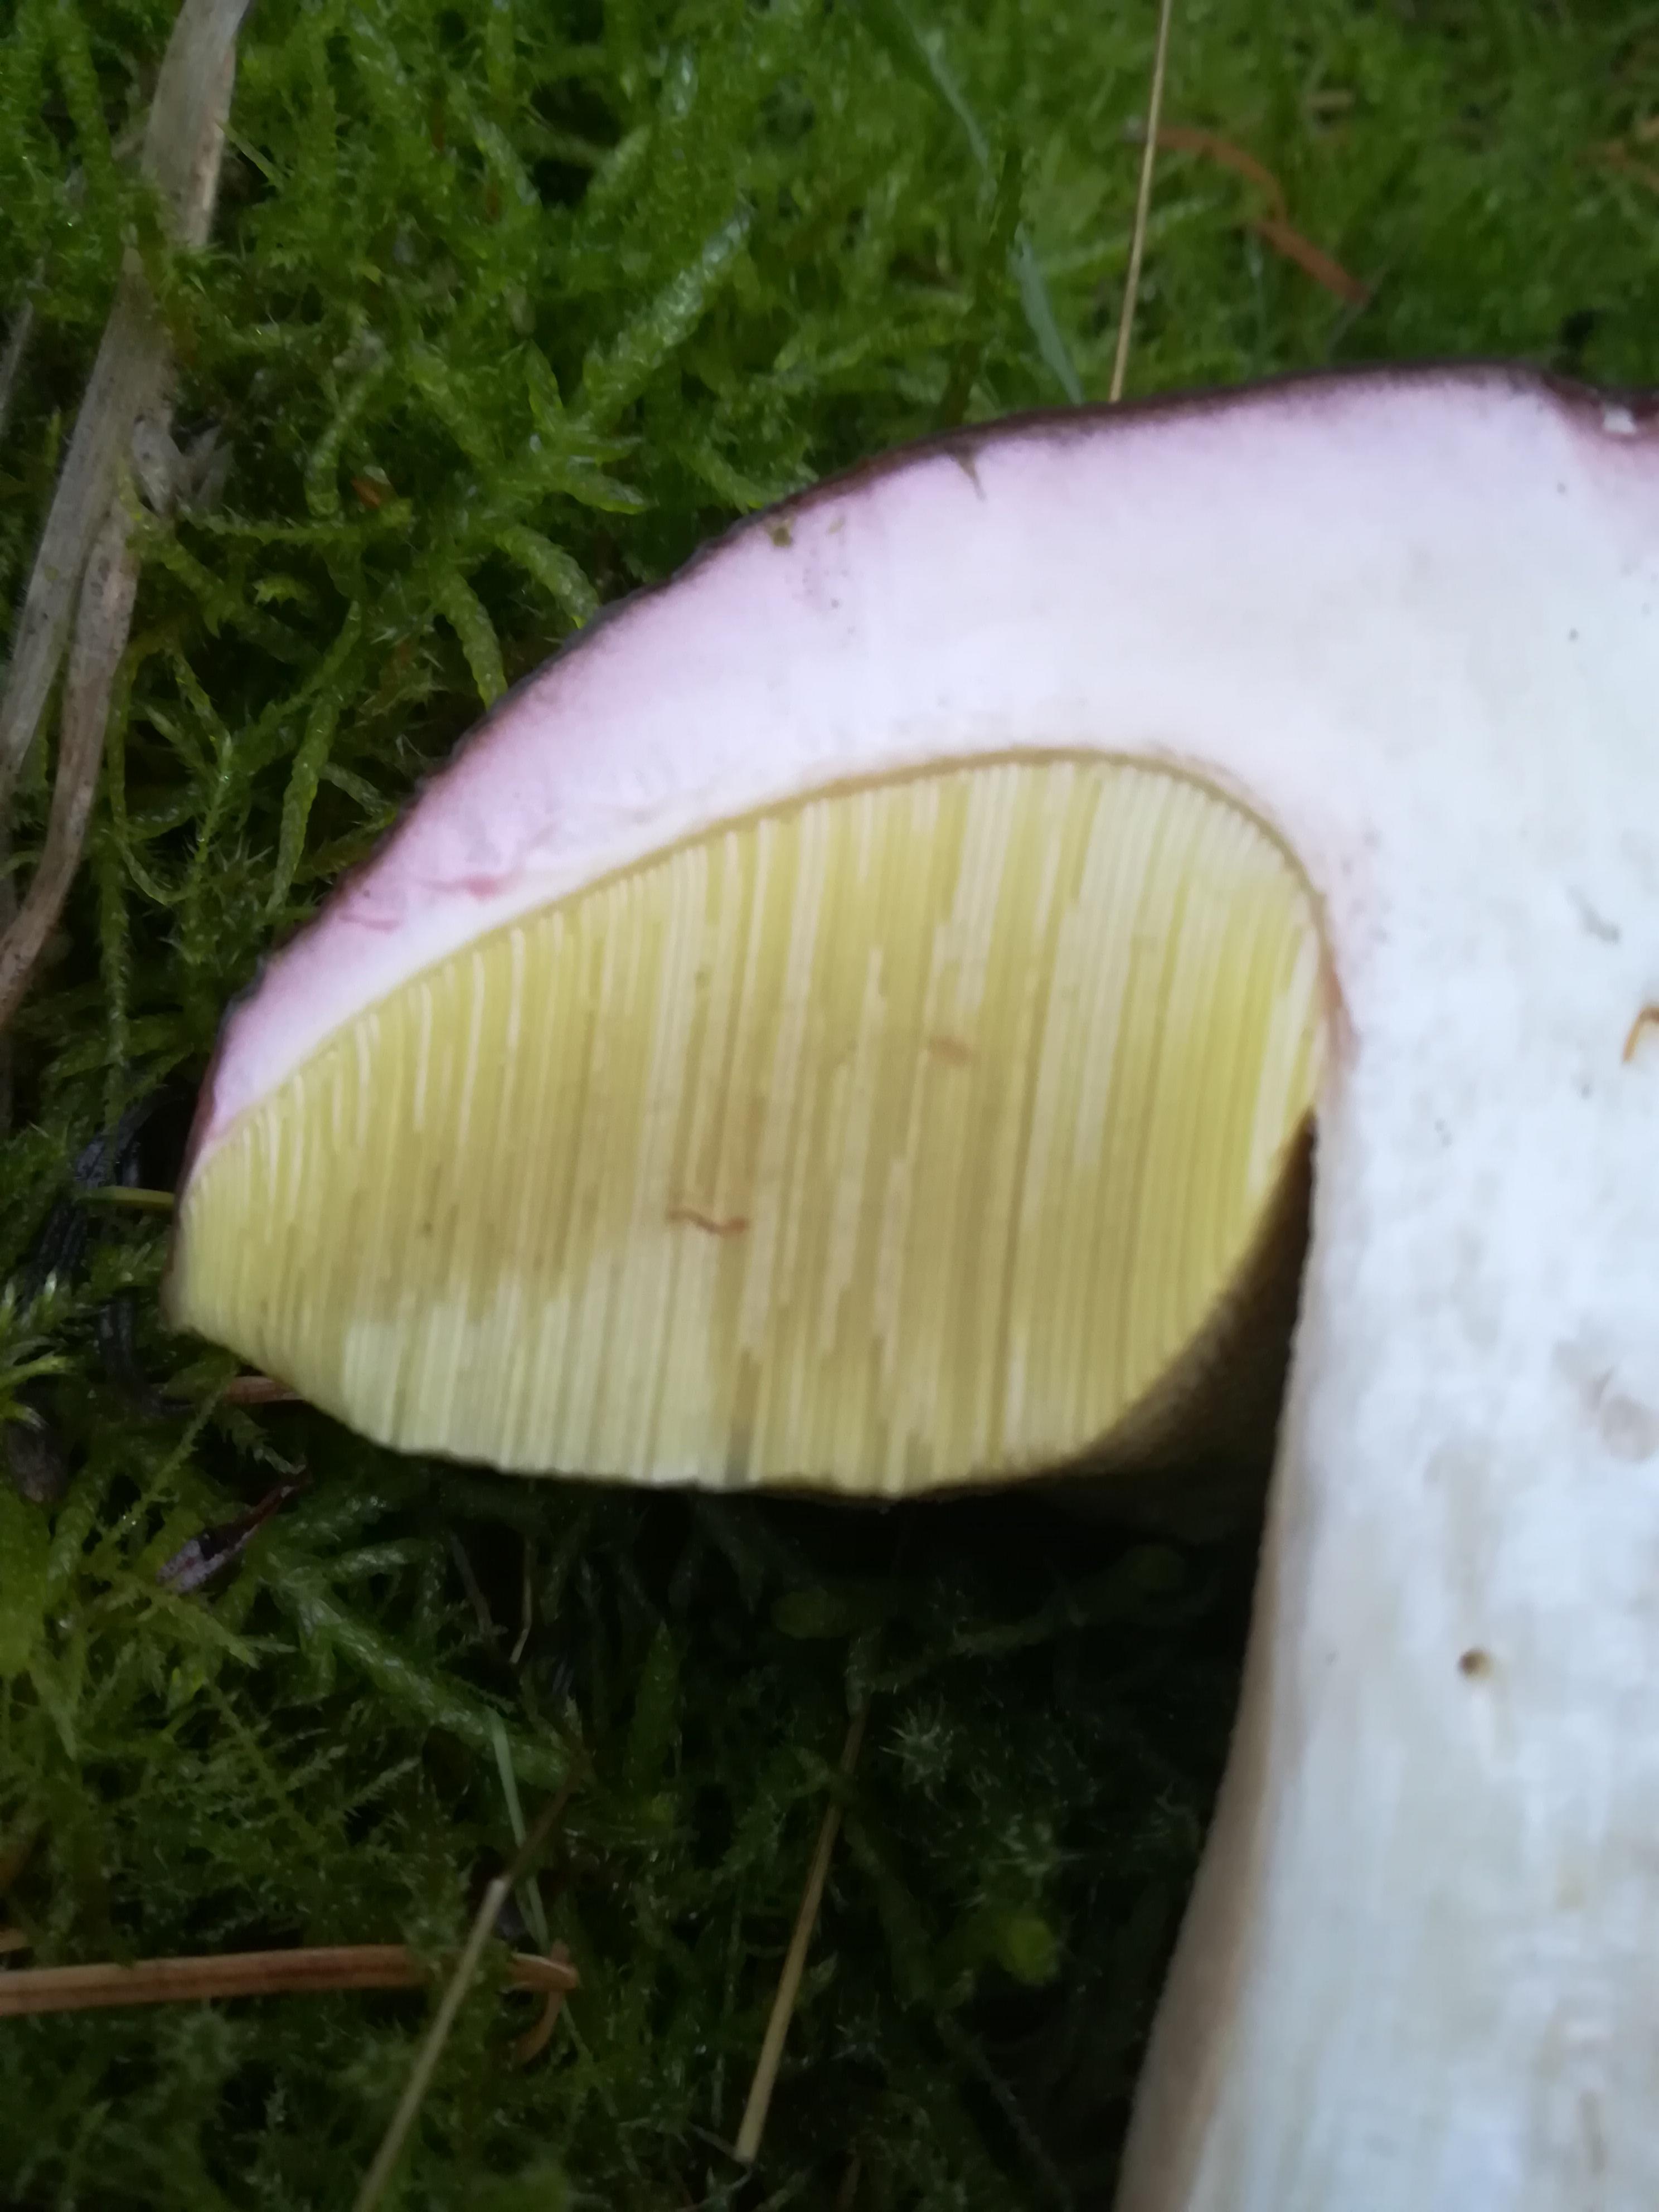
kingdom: Fungi
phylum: Basidiomycota
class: Agaricomycetes
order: Boletales
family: Boletaceae
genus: Boletus
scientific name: Boletus edulis
